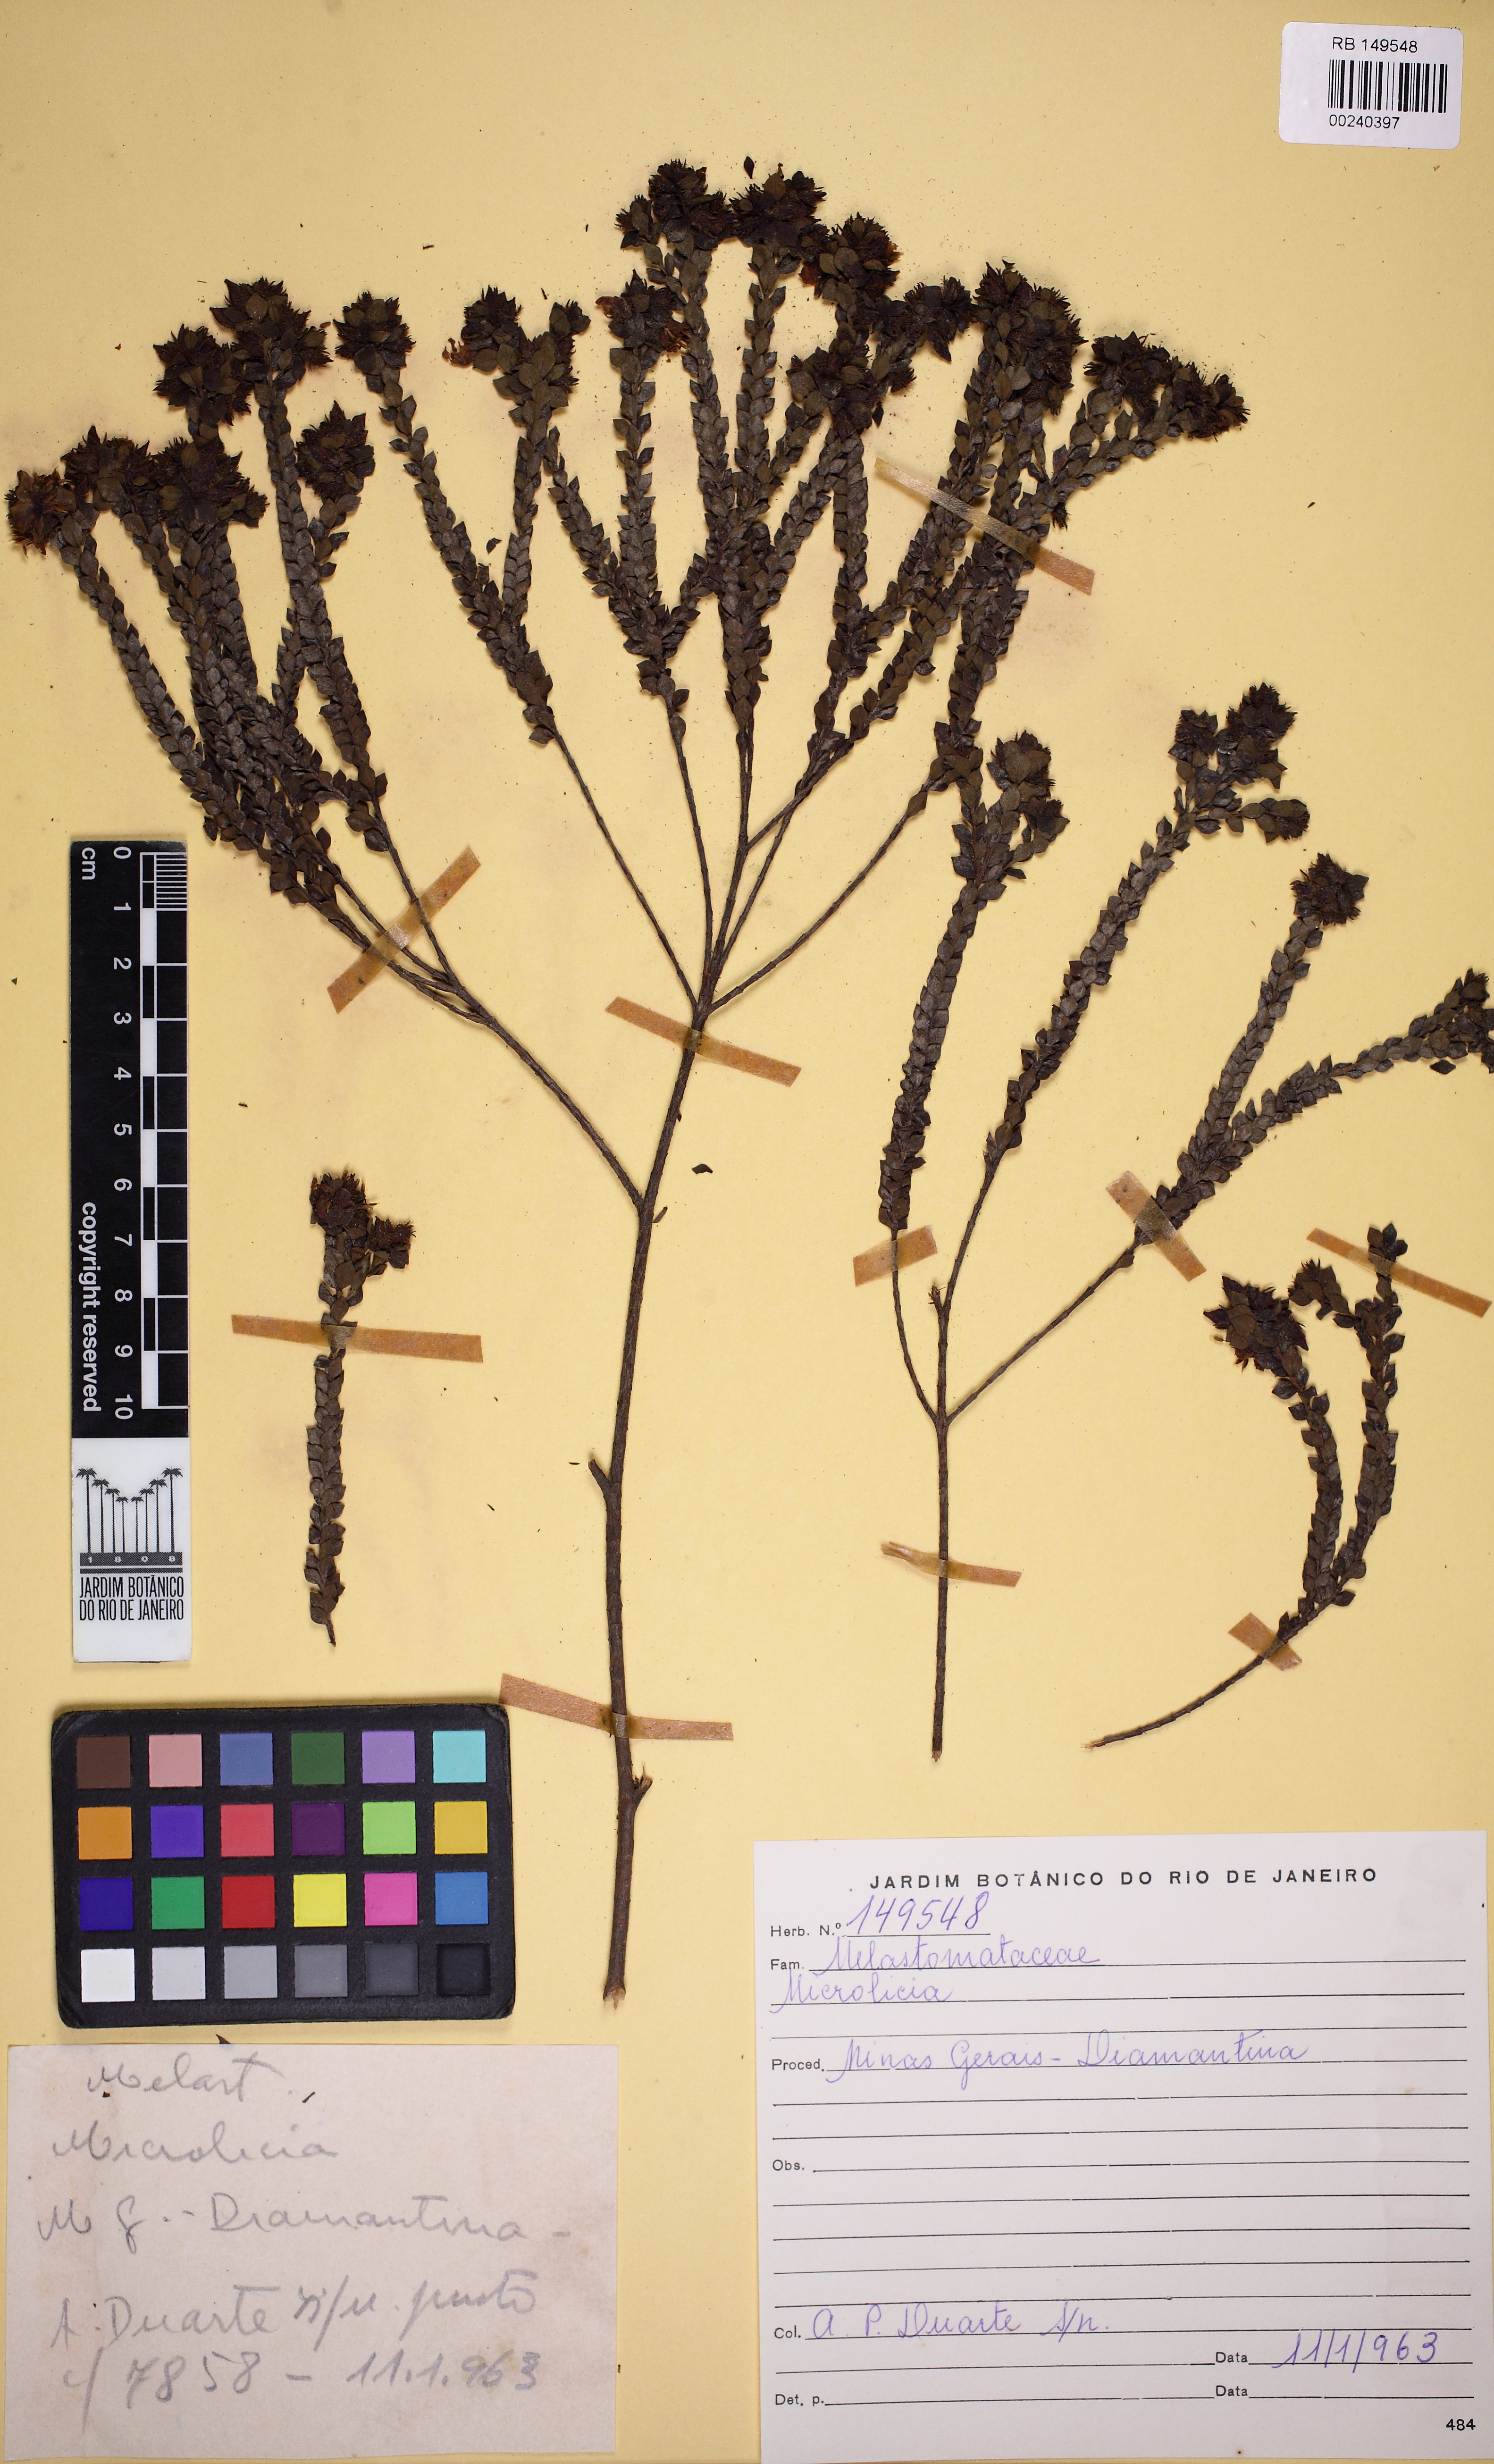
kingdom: Plantae
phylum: Tracheophyta
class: Magnoliopsida
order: Myrtales
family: Melastomataceae
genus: Microlicia
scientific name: Microlicia obtusifolia
